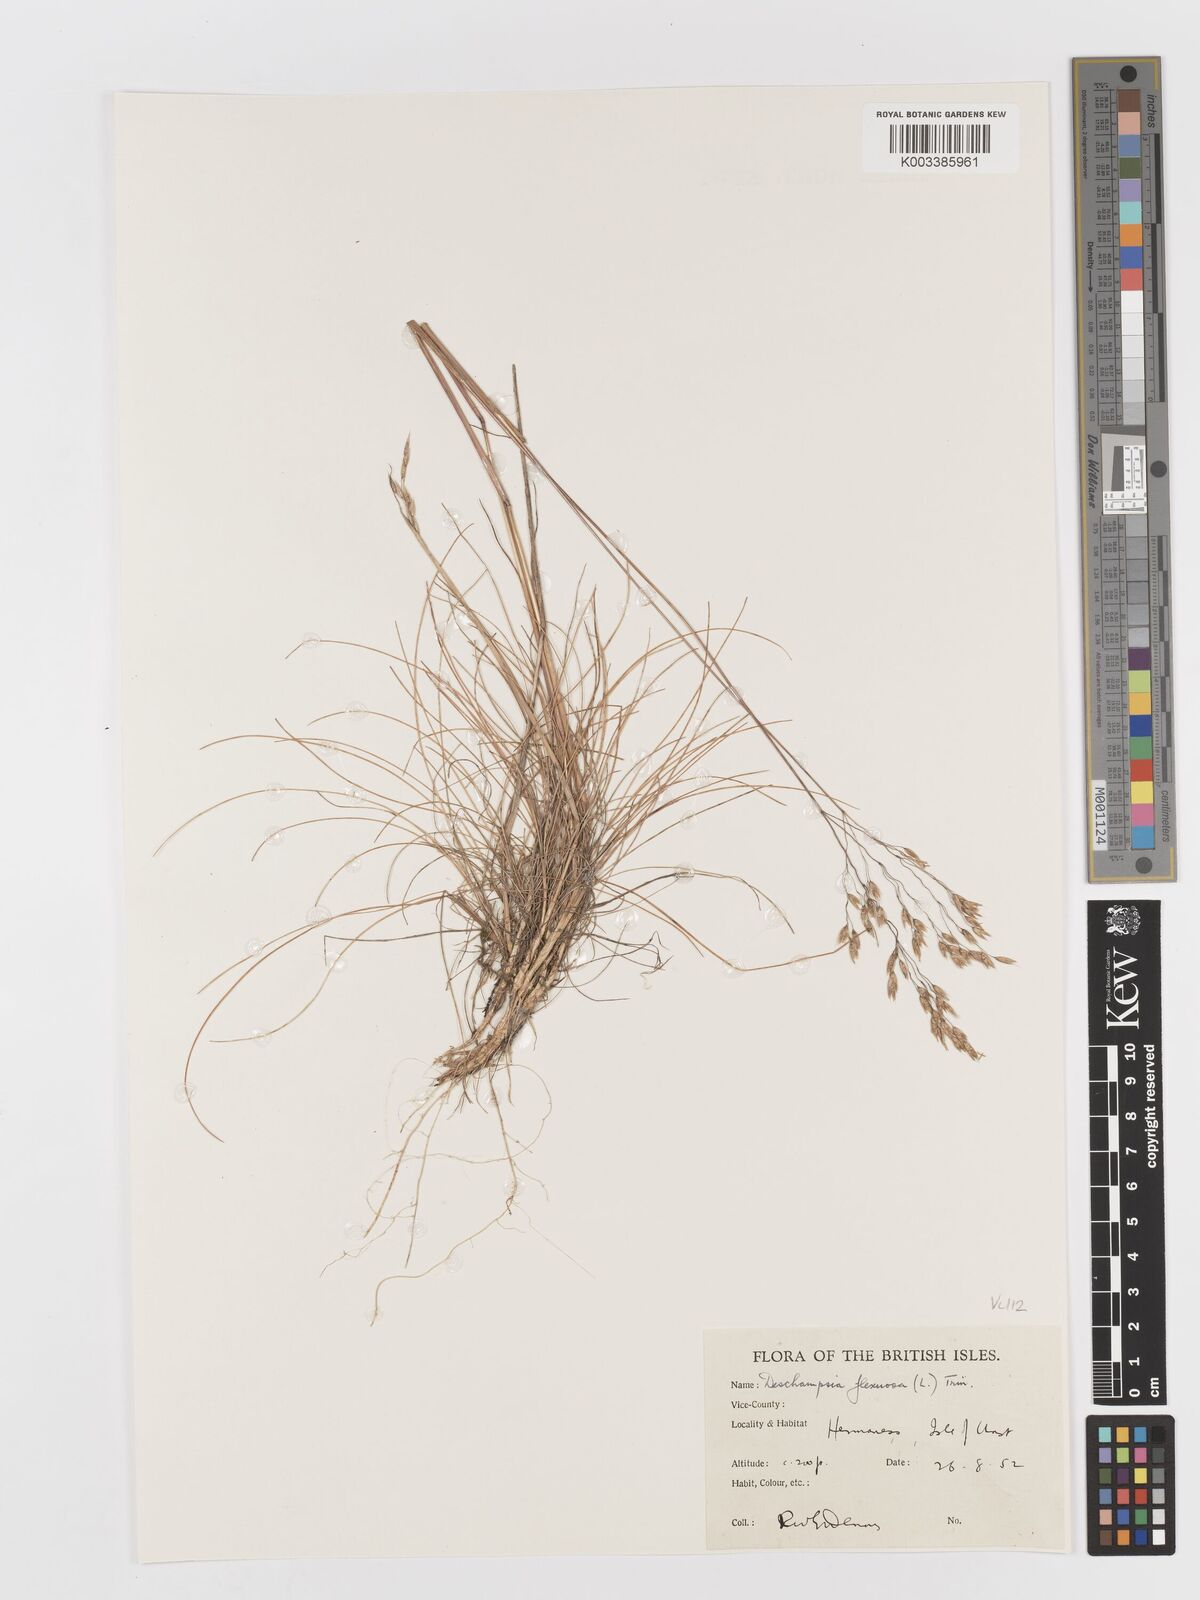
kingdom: Plantae
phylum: Tracheophyta
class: Liliopsida
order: Poales
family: Poaceae
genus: Avenella
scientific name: Avenella flexuosa
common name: Wavy hairgrass
